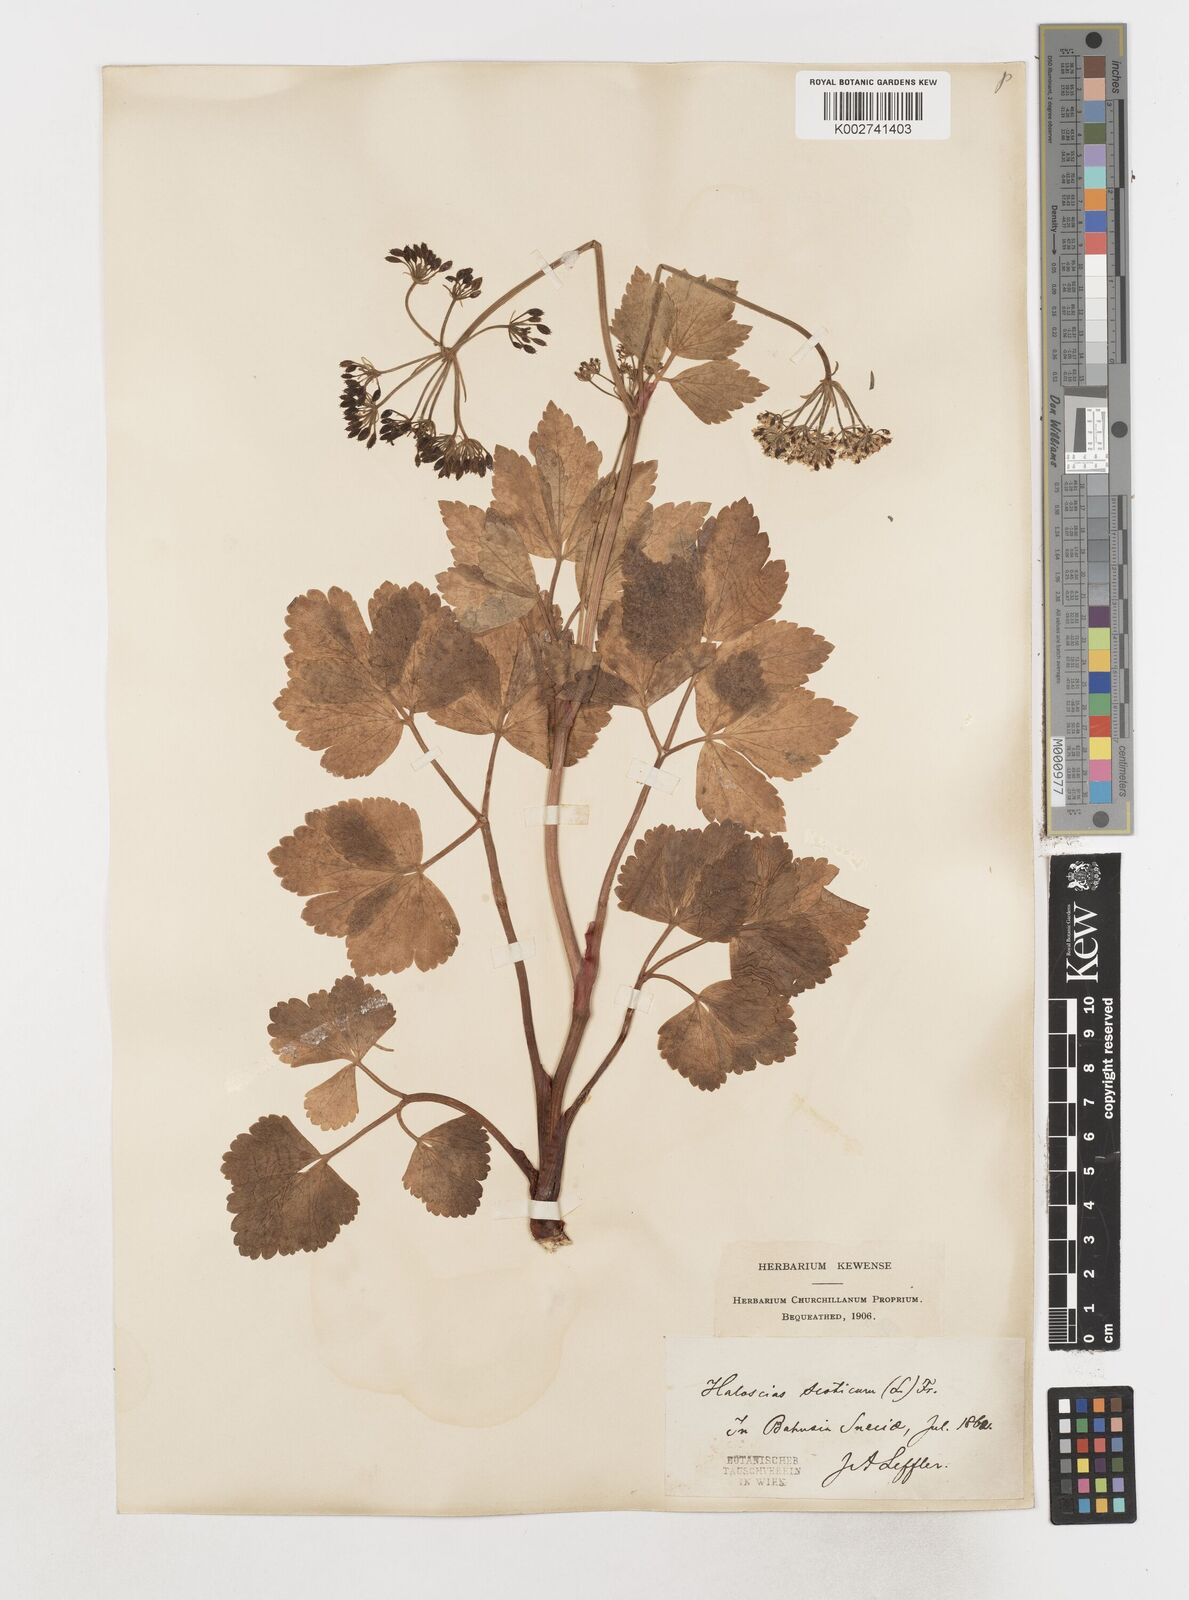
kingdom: Plantae
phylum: Tracheophyta
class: Magnoliopsida
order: Apiales
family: Apiaceae
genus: Ligusticum
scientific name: Ligusticum scothicum
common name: Beach lovage
